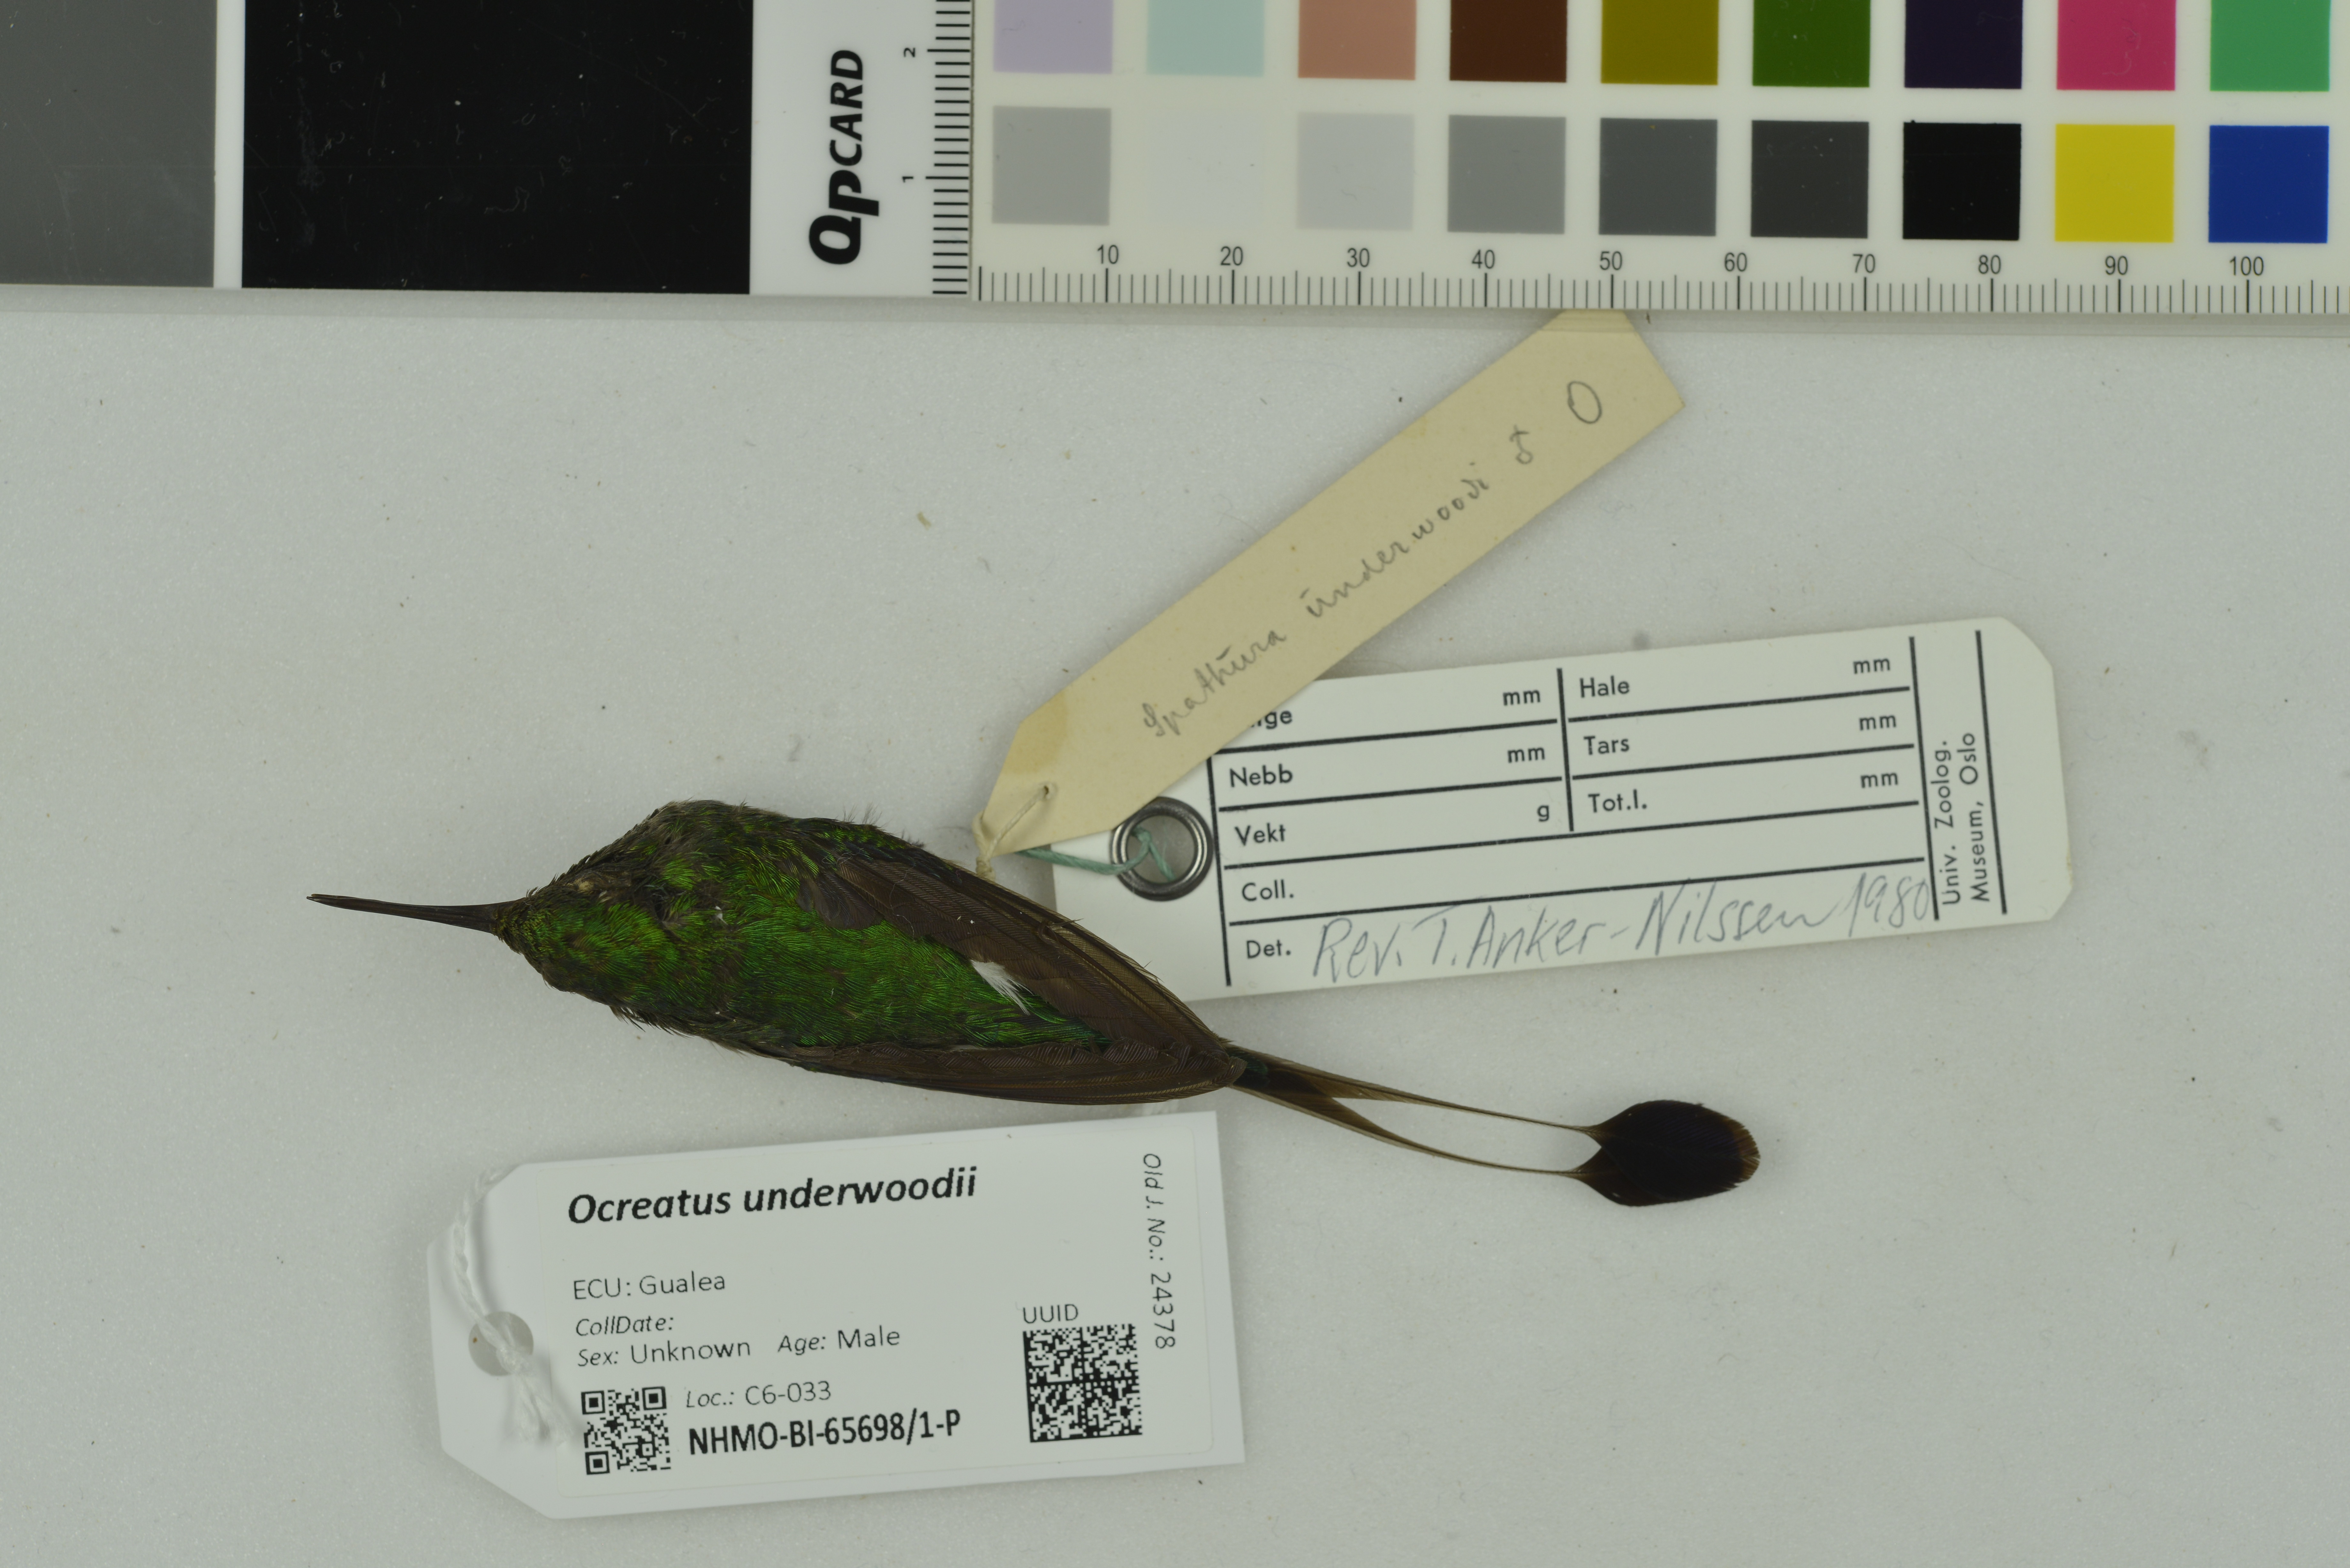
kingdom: Animalia
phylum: Chordata
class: Aves
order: Apodiformes
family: Trochilidae
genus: Ocreatus
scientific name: Ocreatus underwoodii
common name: Booted racket-tail
